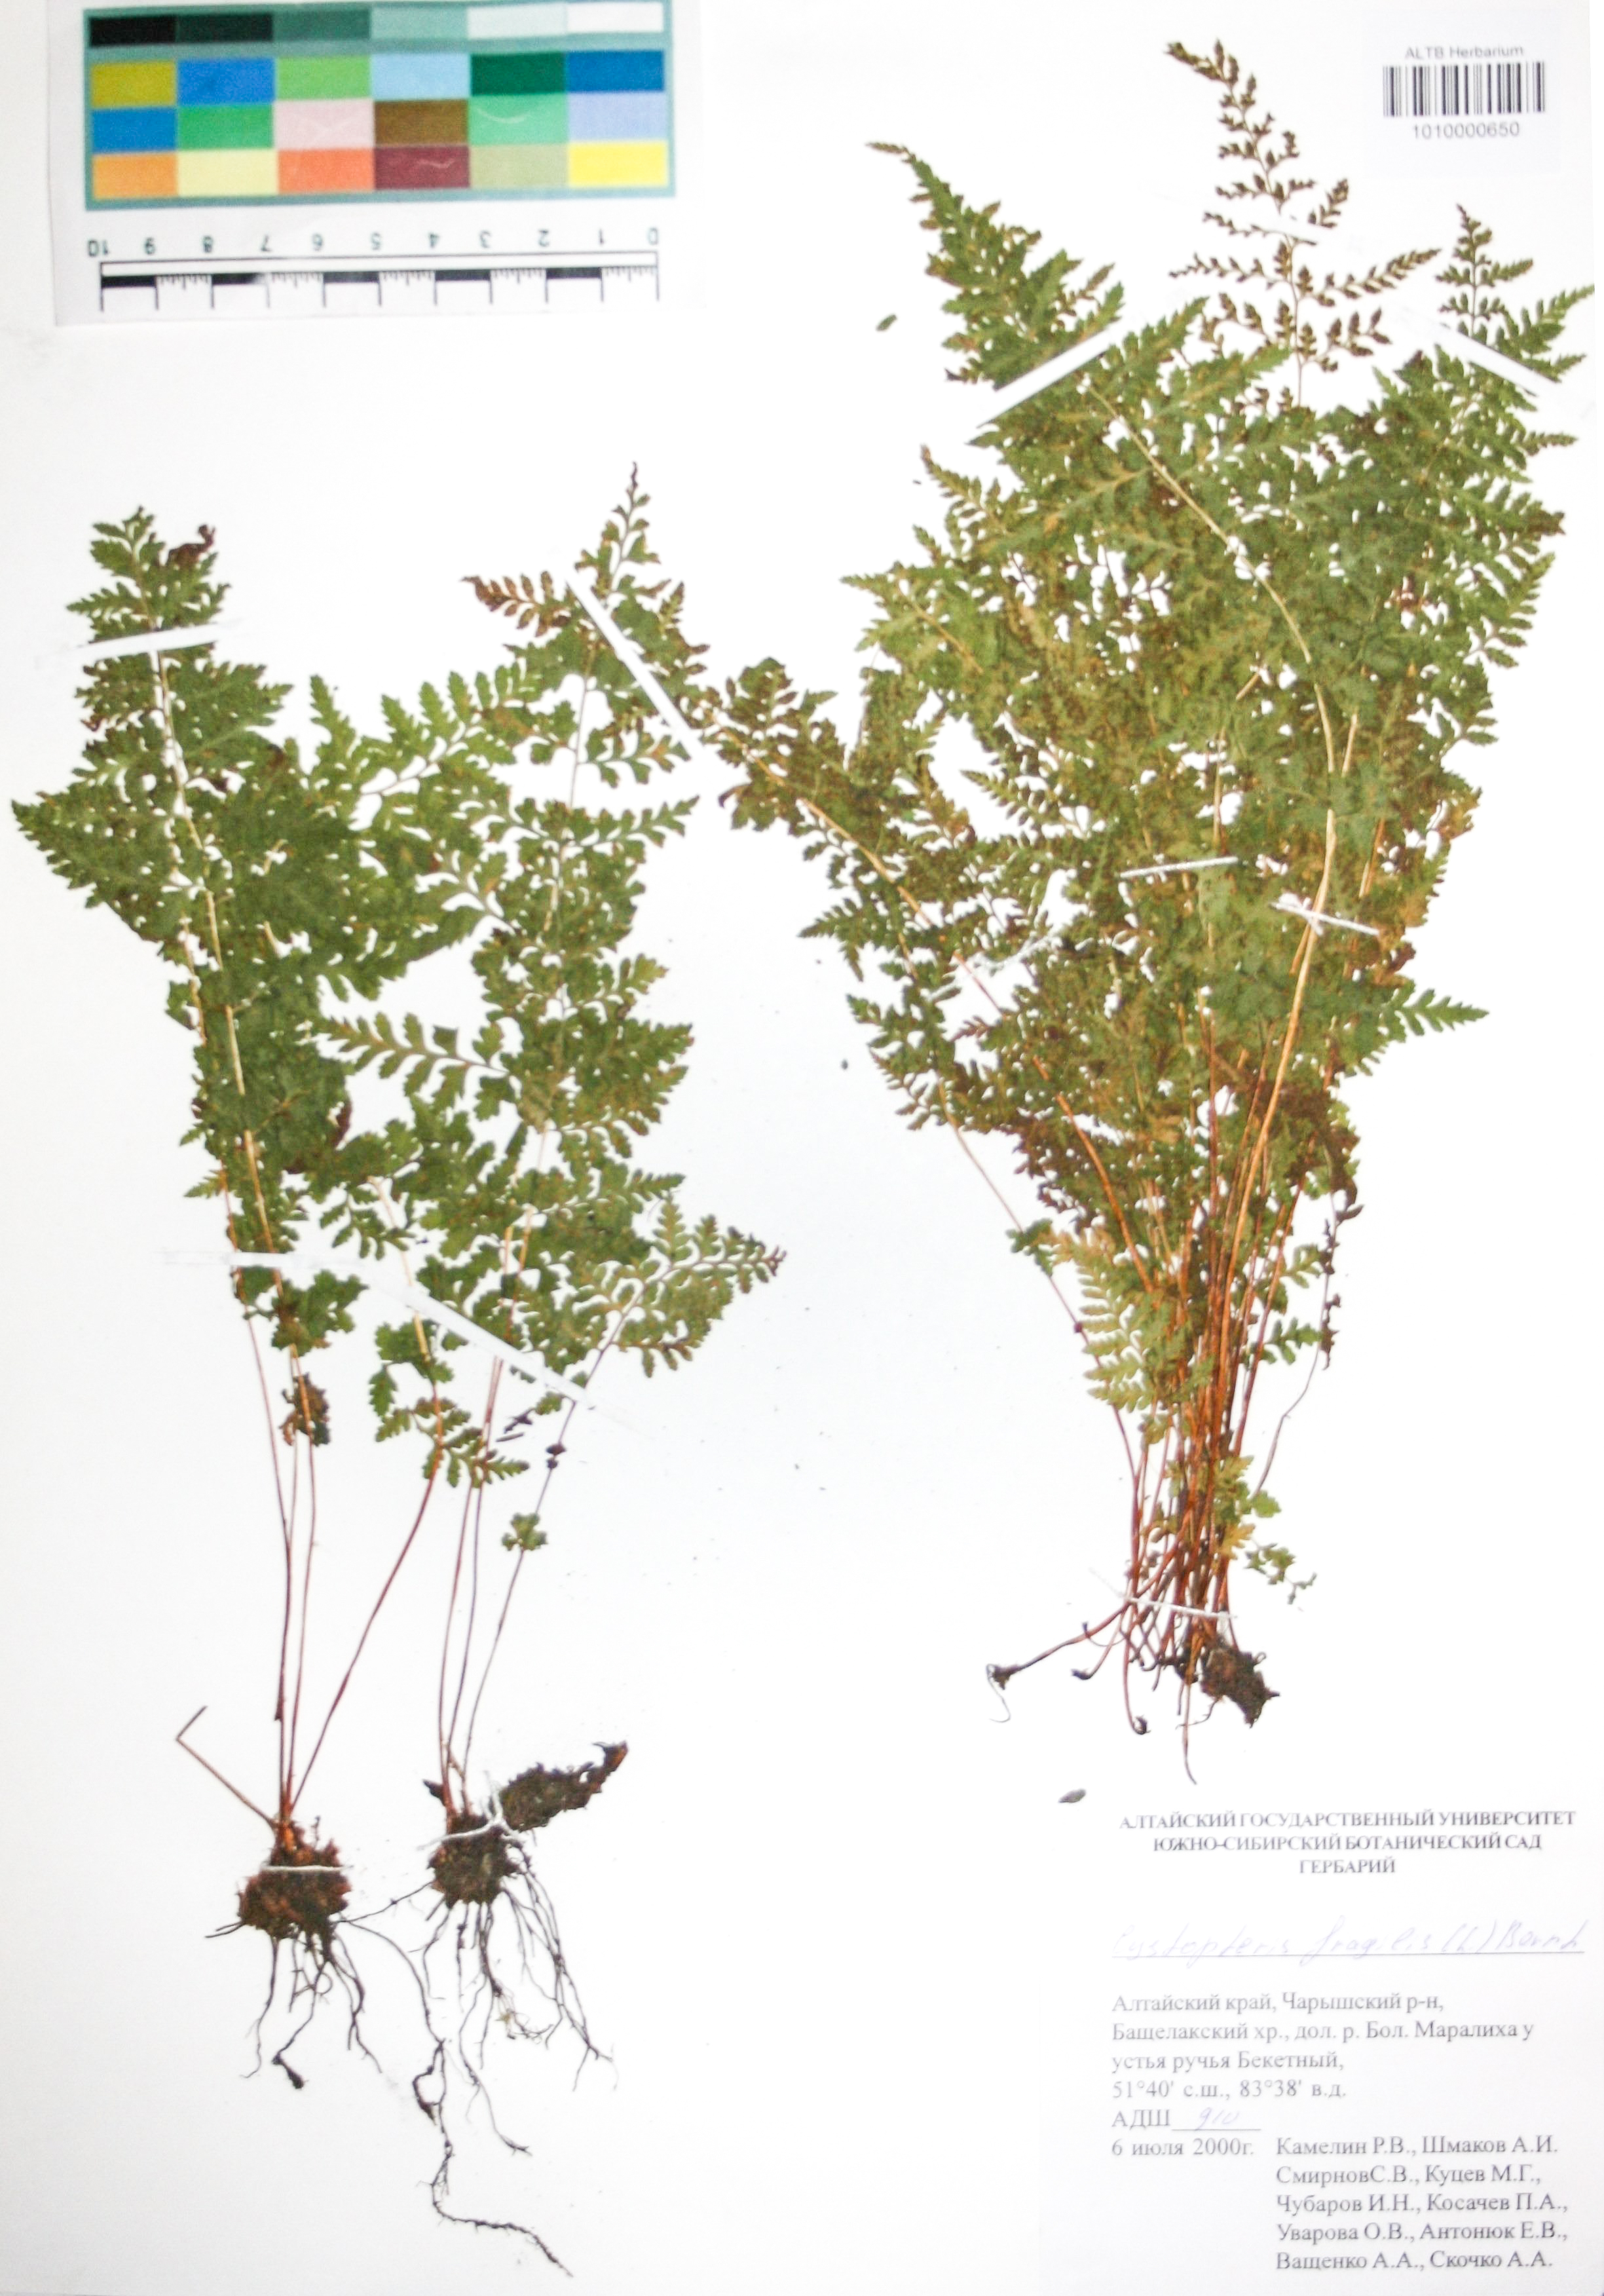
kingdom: Plantae
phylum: Tracheophyta
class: Polypodiopsida
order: Polypodiales
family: Cystopteridaceae
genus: Cystopteris
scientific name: Cystopteris fragilis
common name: Brittle bladder fern
